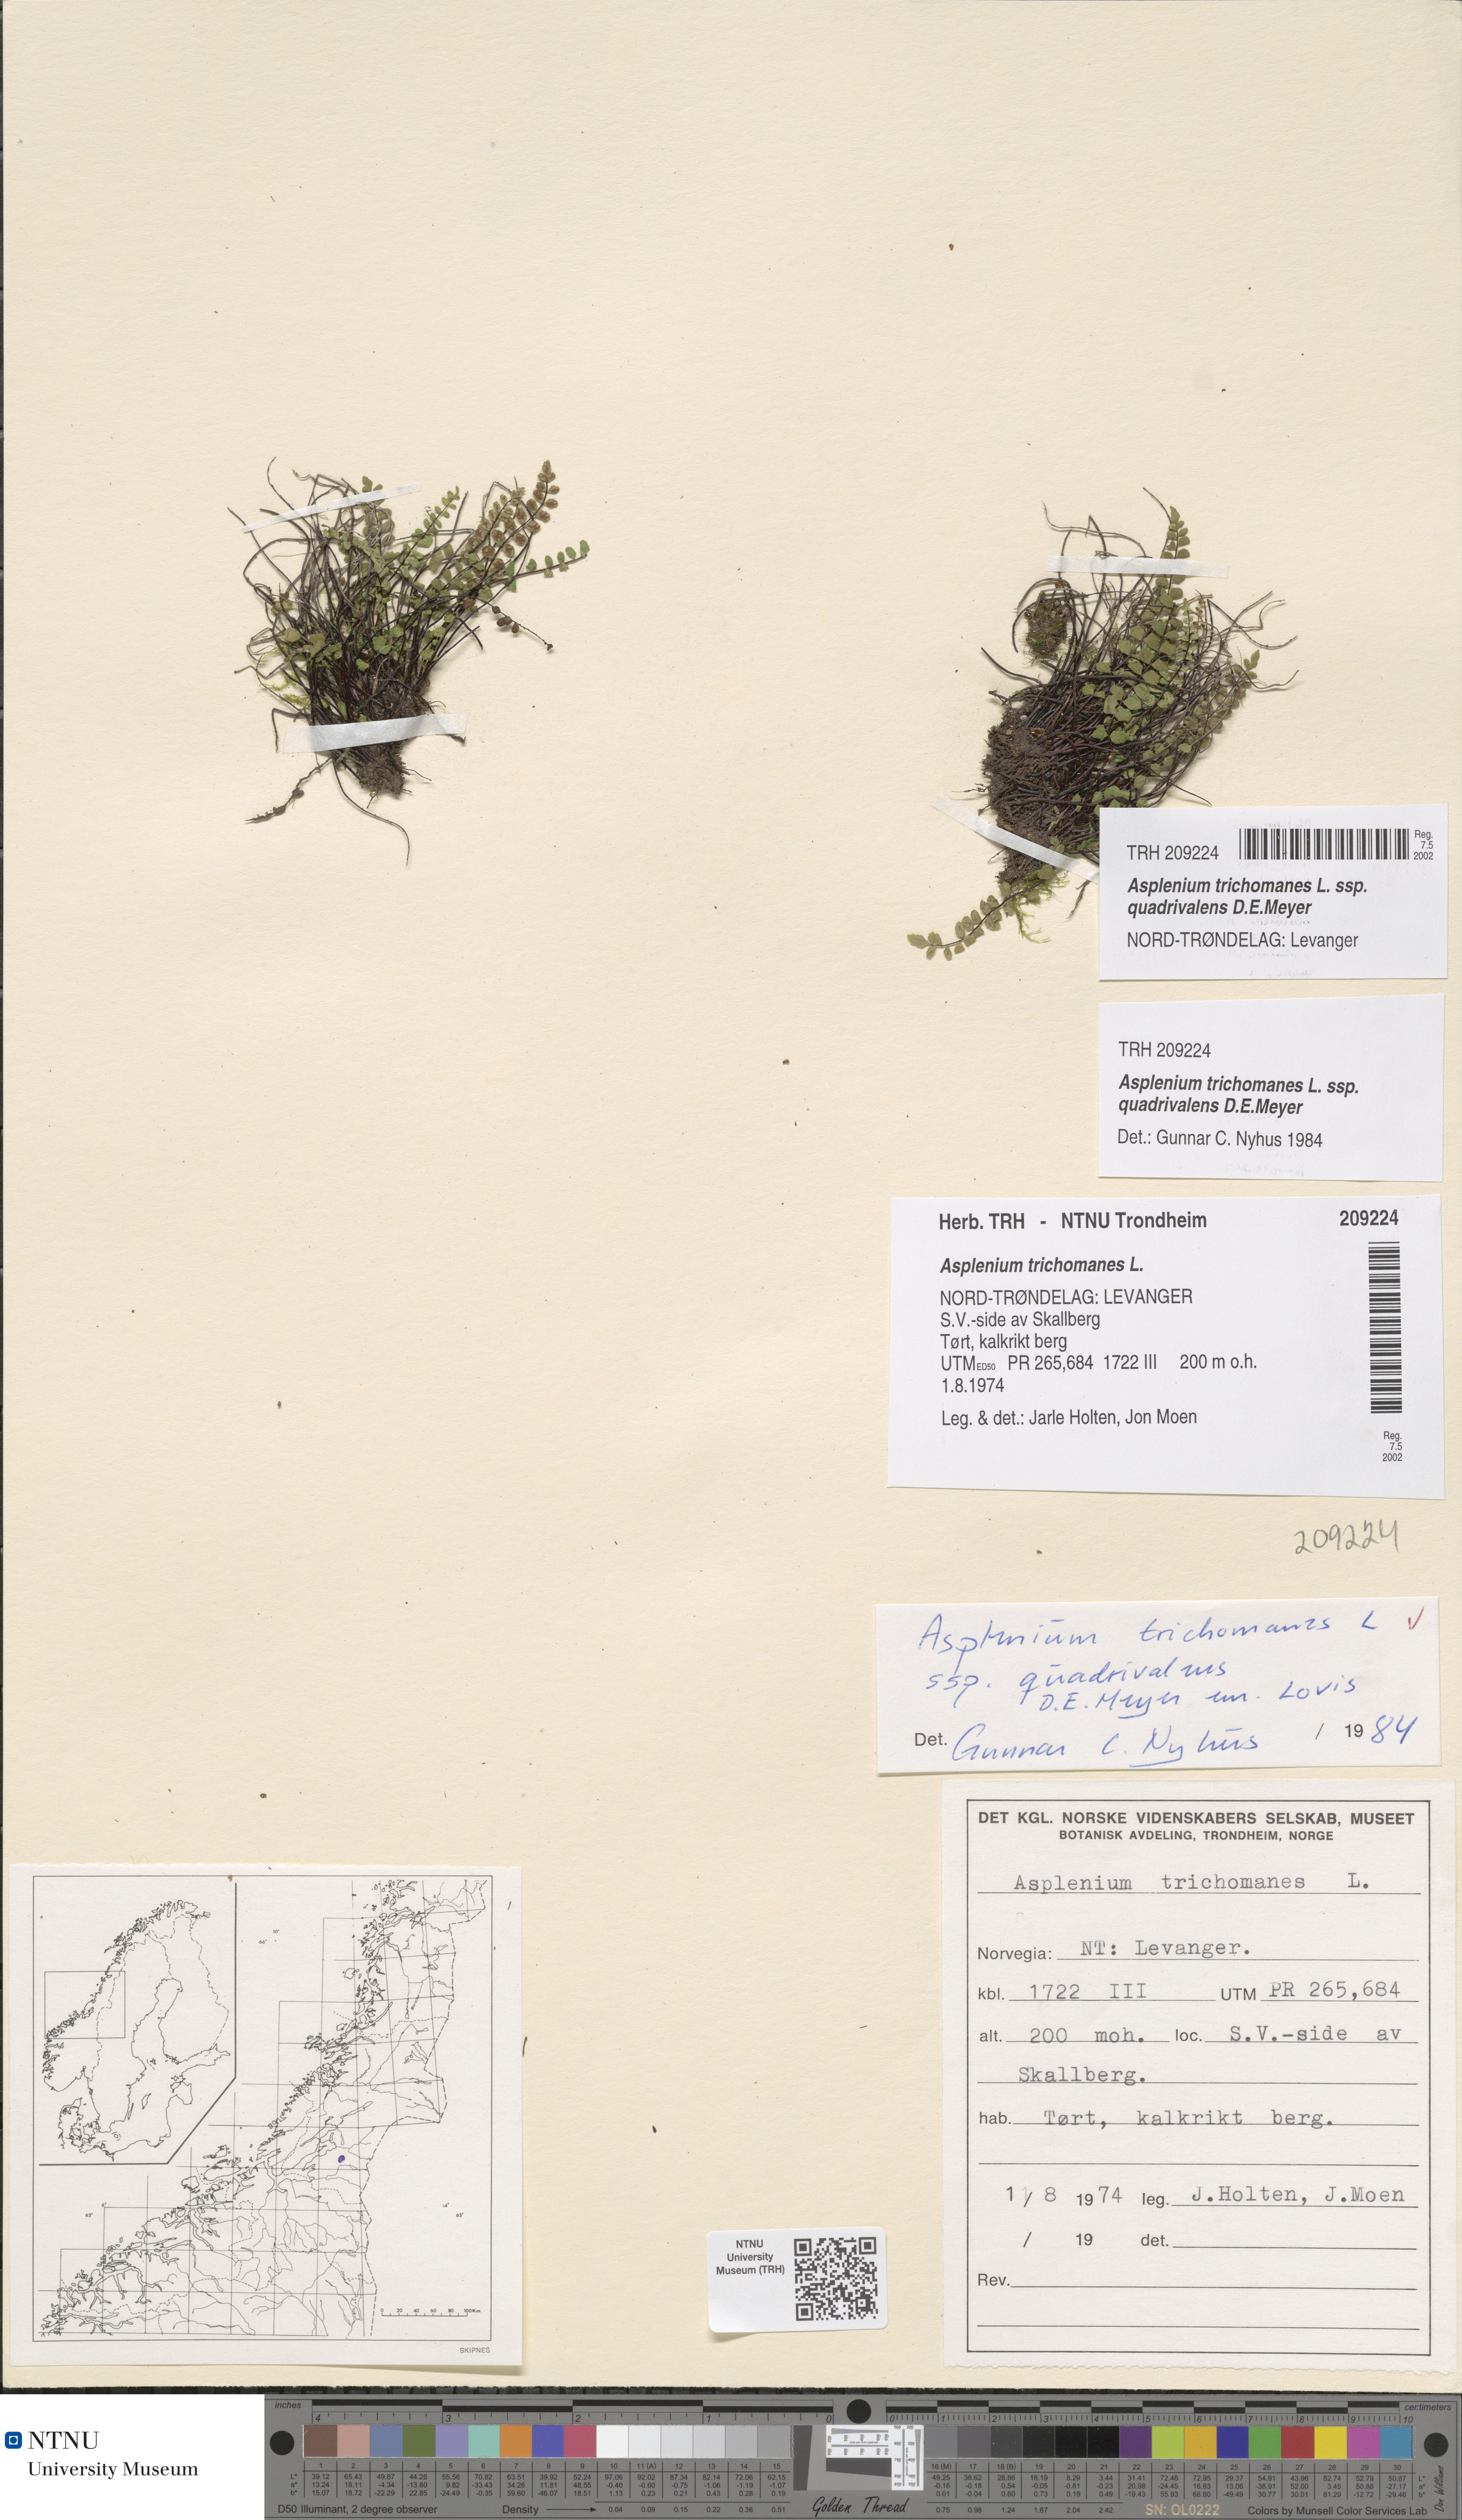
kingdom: Plantae
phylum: Tracheophyta
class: Polypodiopsida
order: Polypodiales
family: Aspleniaceae
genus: Asplenium
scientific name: Asplenium quadrivalens
